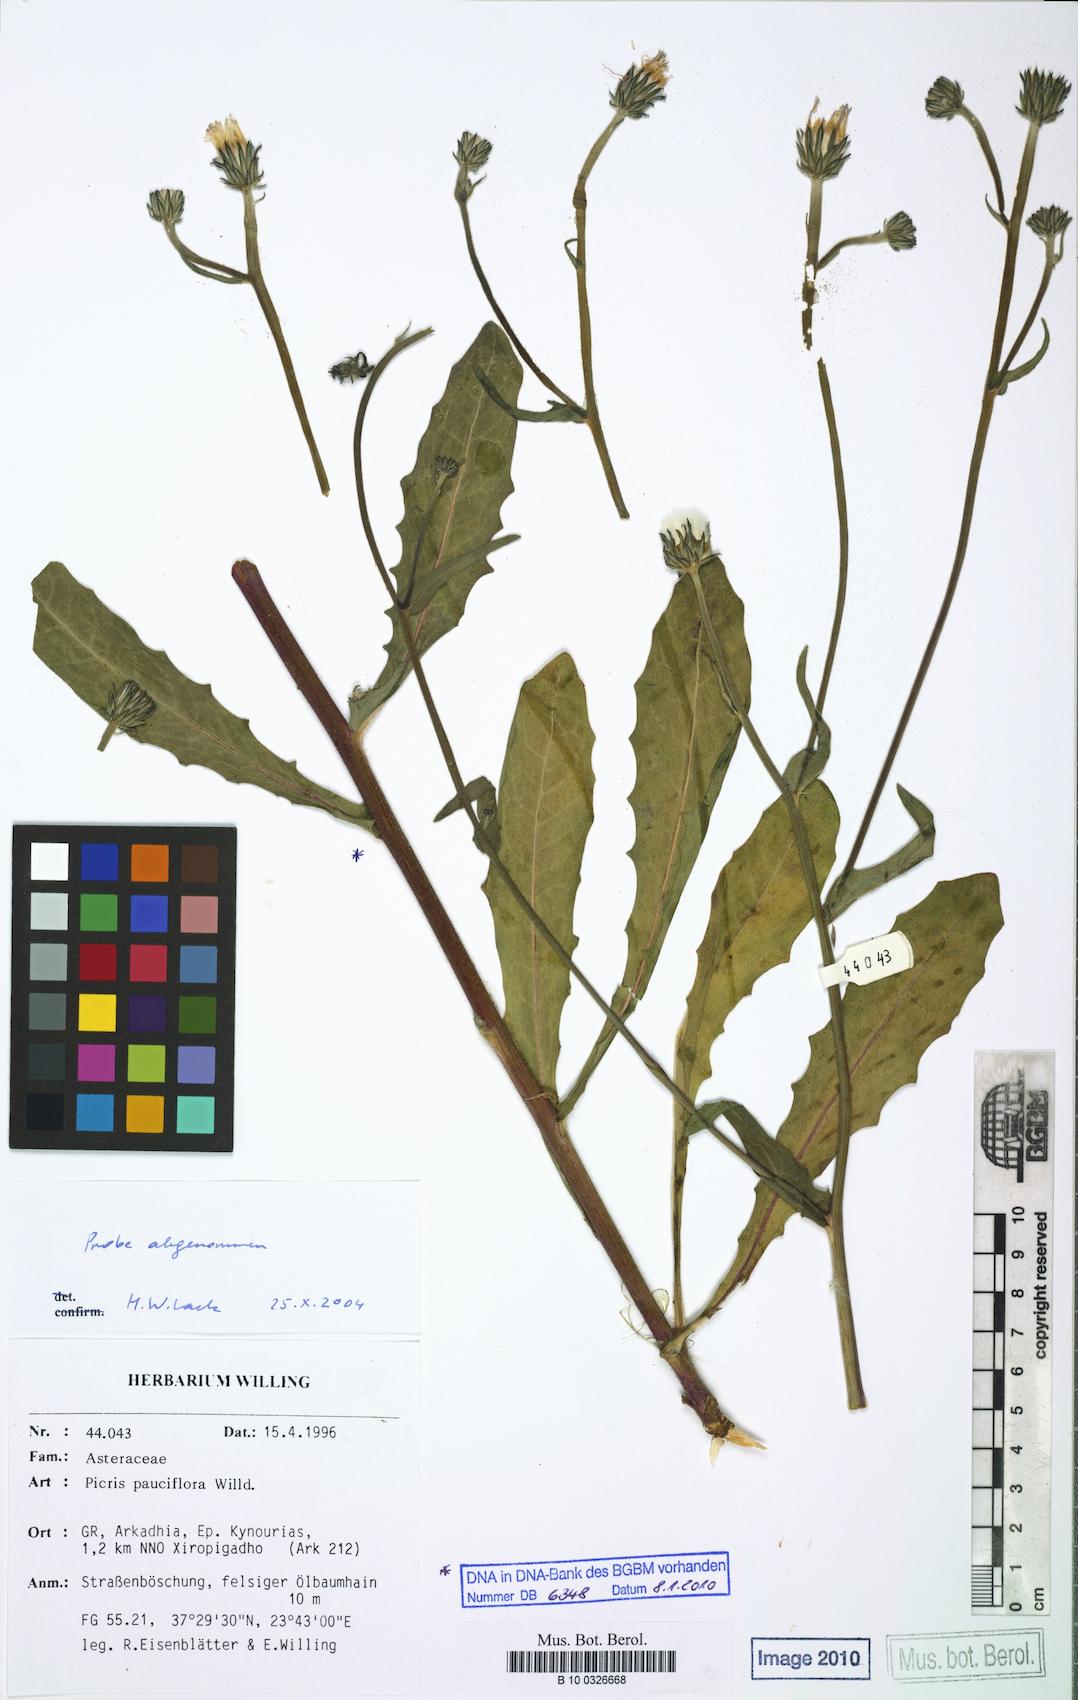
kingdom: Plantae
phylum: Tracheophyta
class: Magnoliopsida
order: Asterales
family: Asteraceae
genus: Picris
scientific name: Picris pauciflora
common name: Smallflower oxtongue
